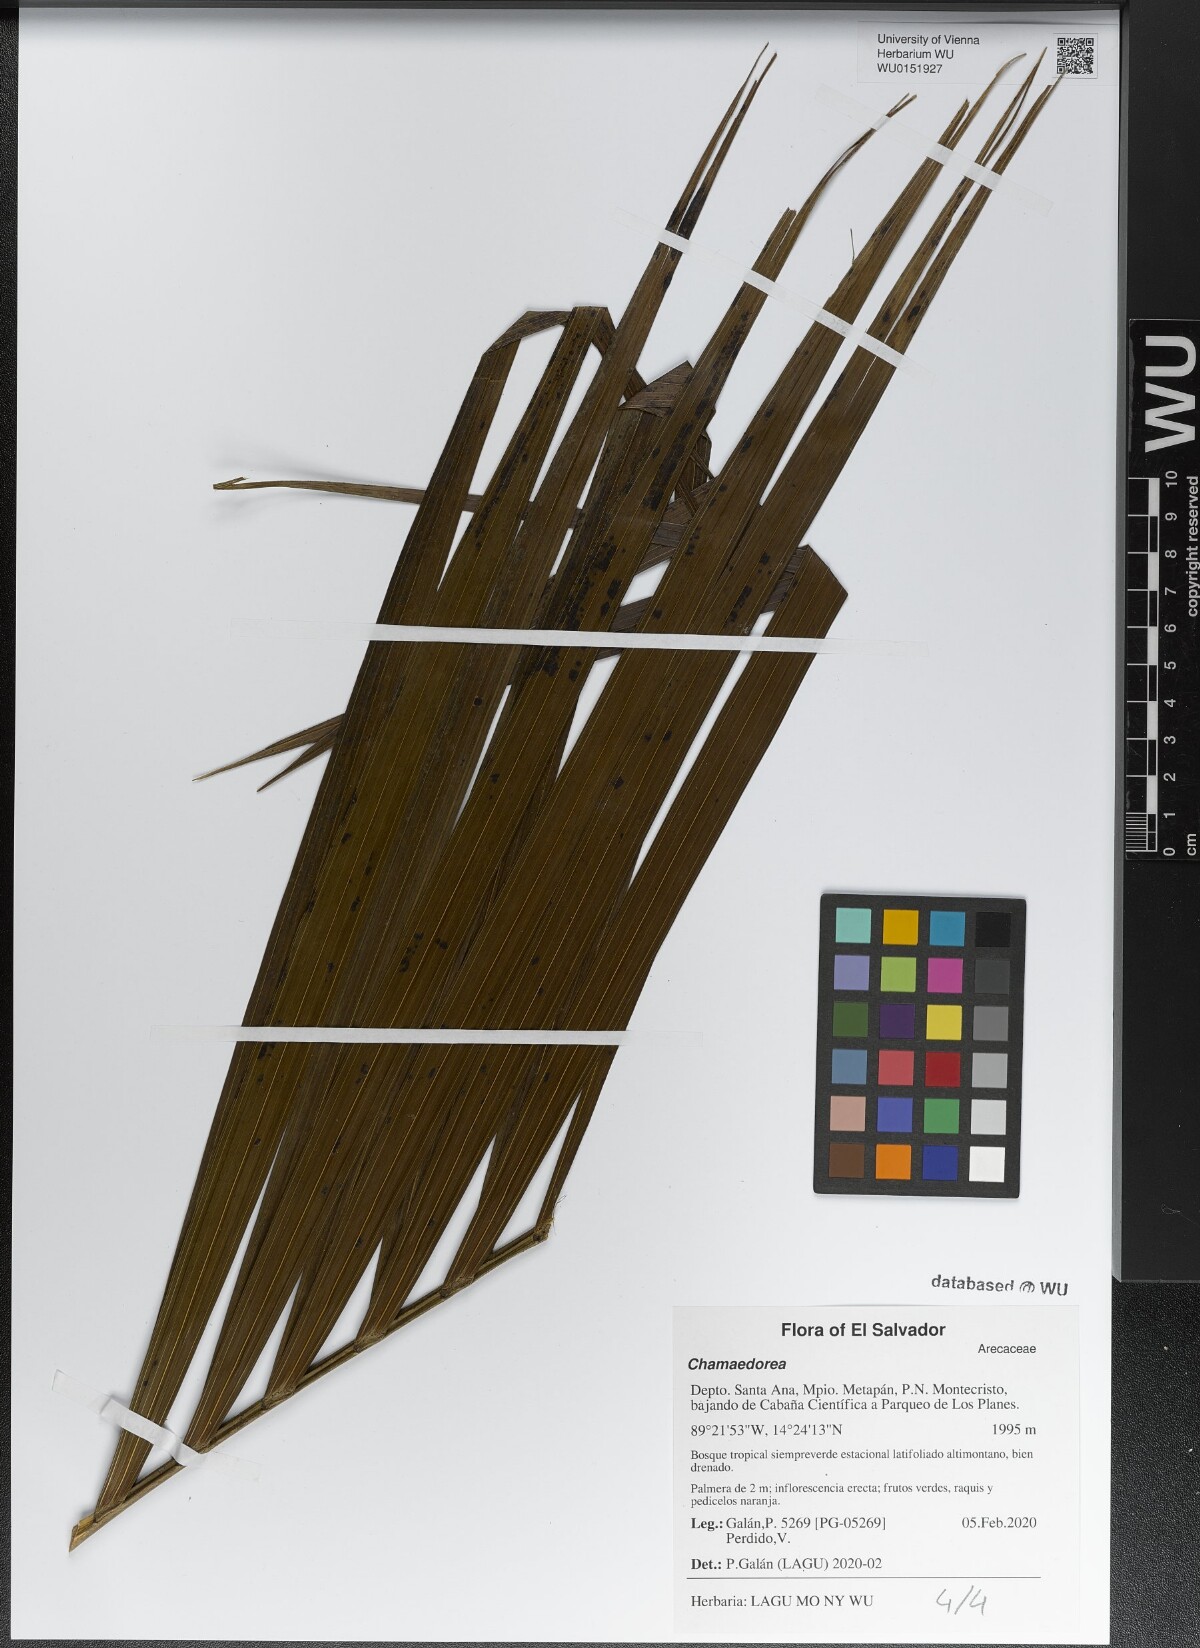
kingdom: Plantae
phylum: Tracheophyta
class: Liliopsida
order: Arecales
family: Arecaceae
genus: Chamaedorea
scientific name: Chamaedorea
